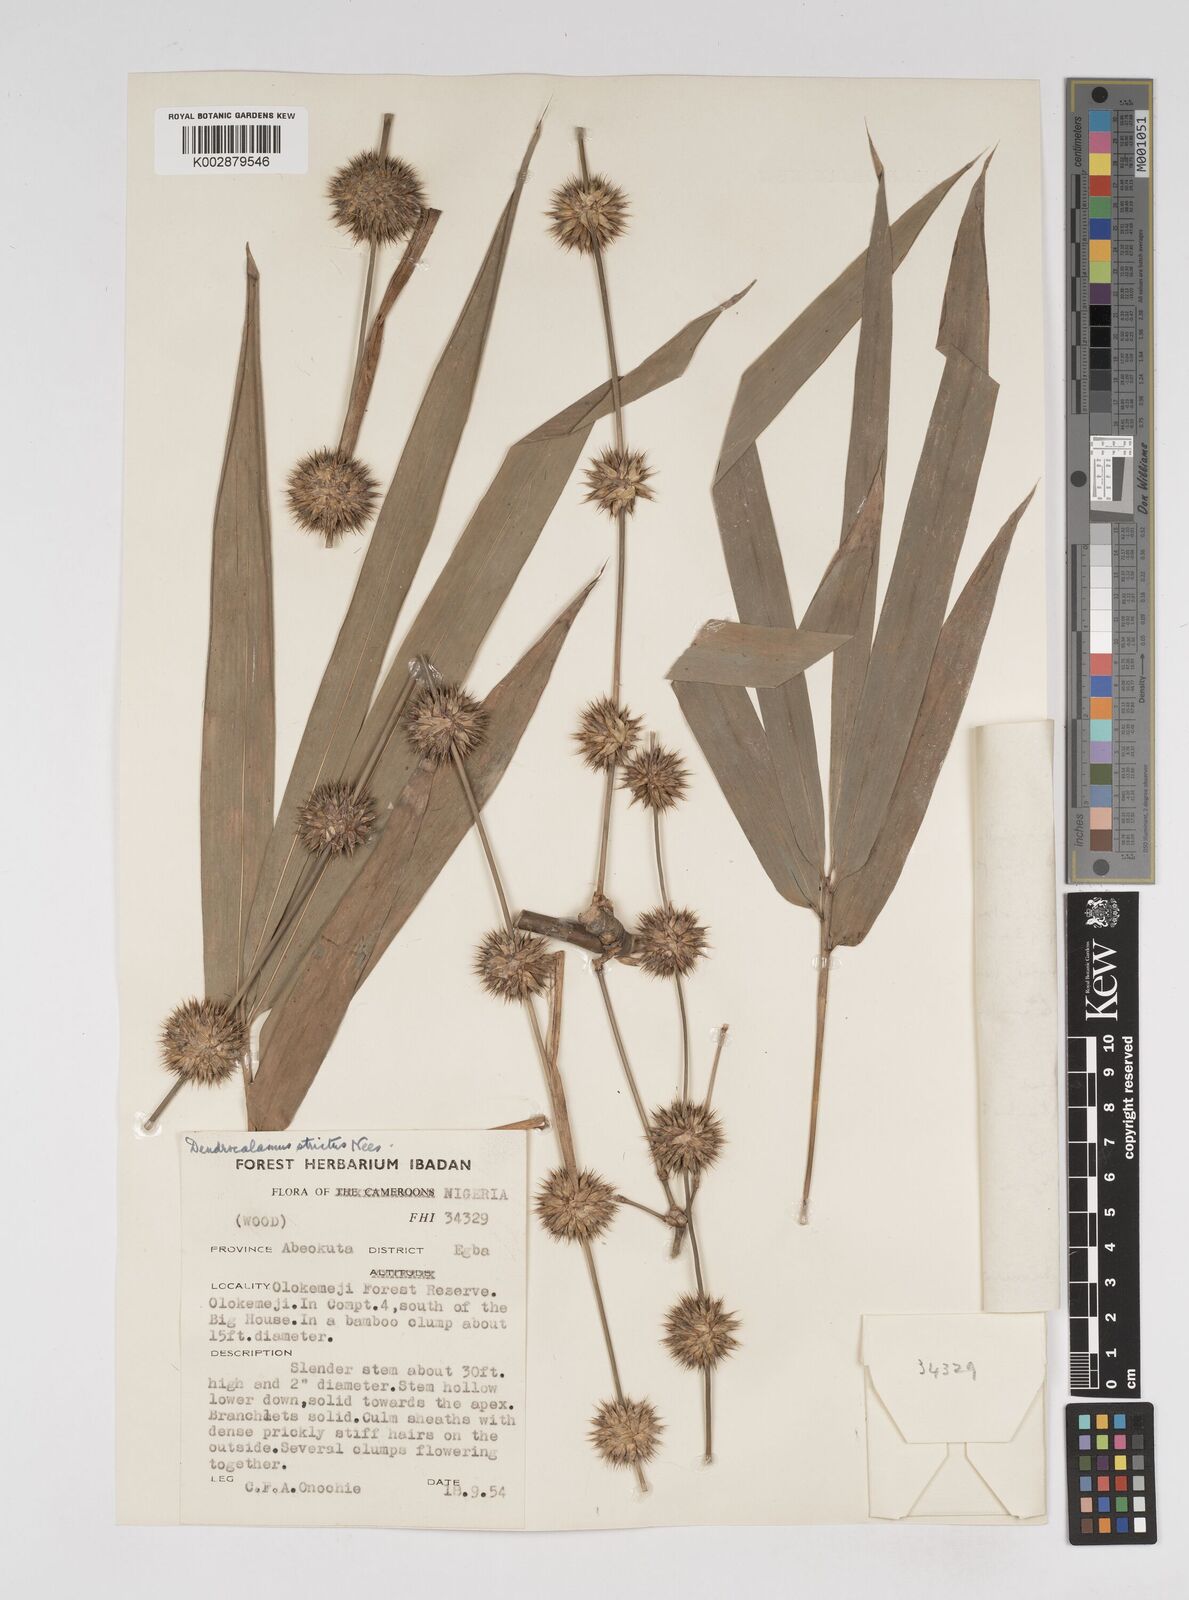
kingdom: Plantae
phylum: Tracheophyta
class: Liliopsida
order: Poales
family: Poaceae
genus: Dendrocalamus
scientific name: Dendrocalamus strictus
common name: Male bamboo
